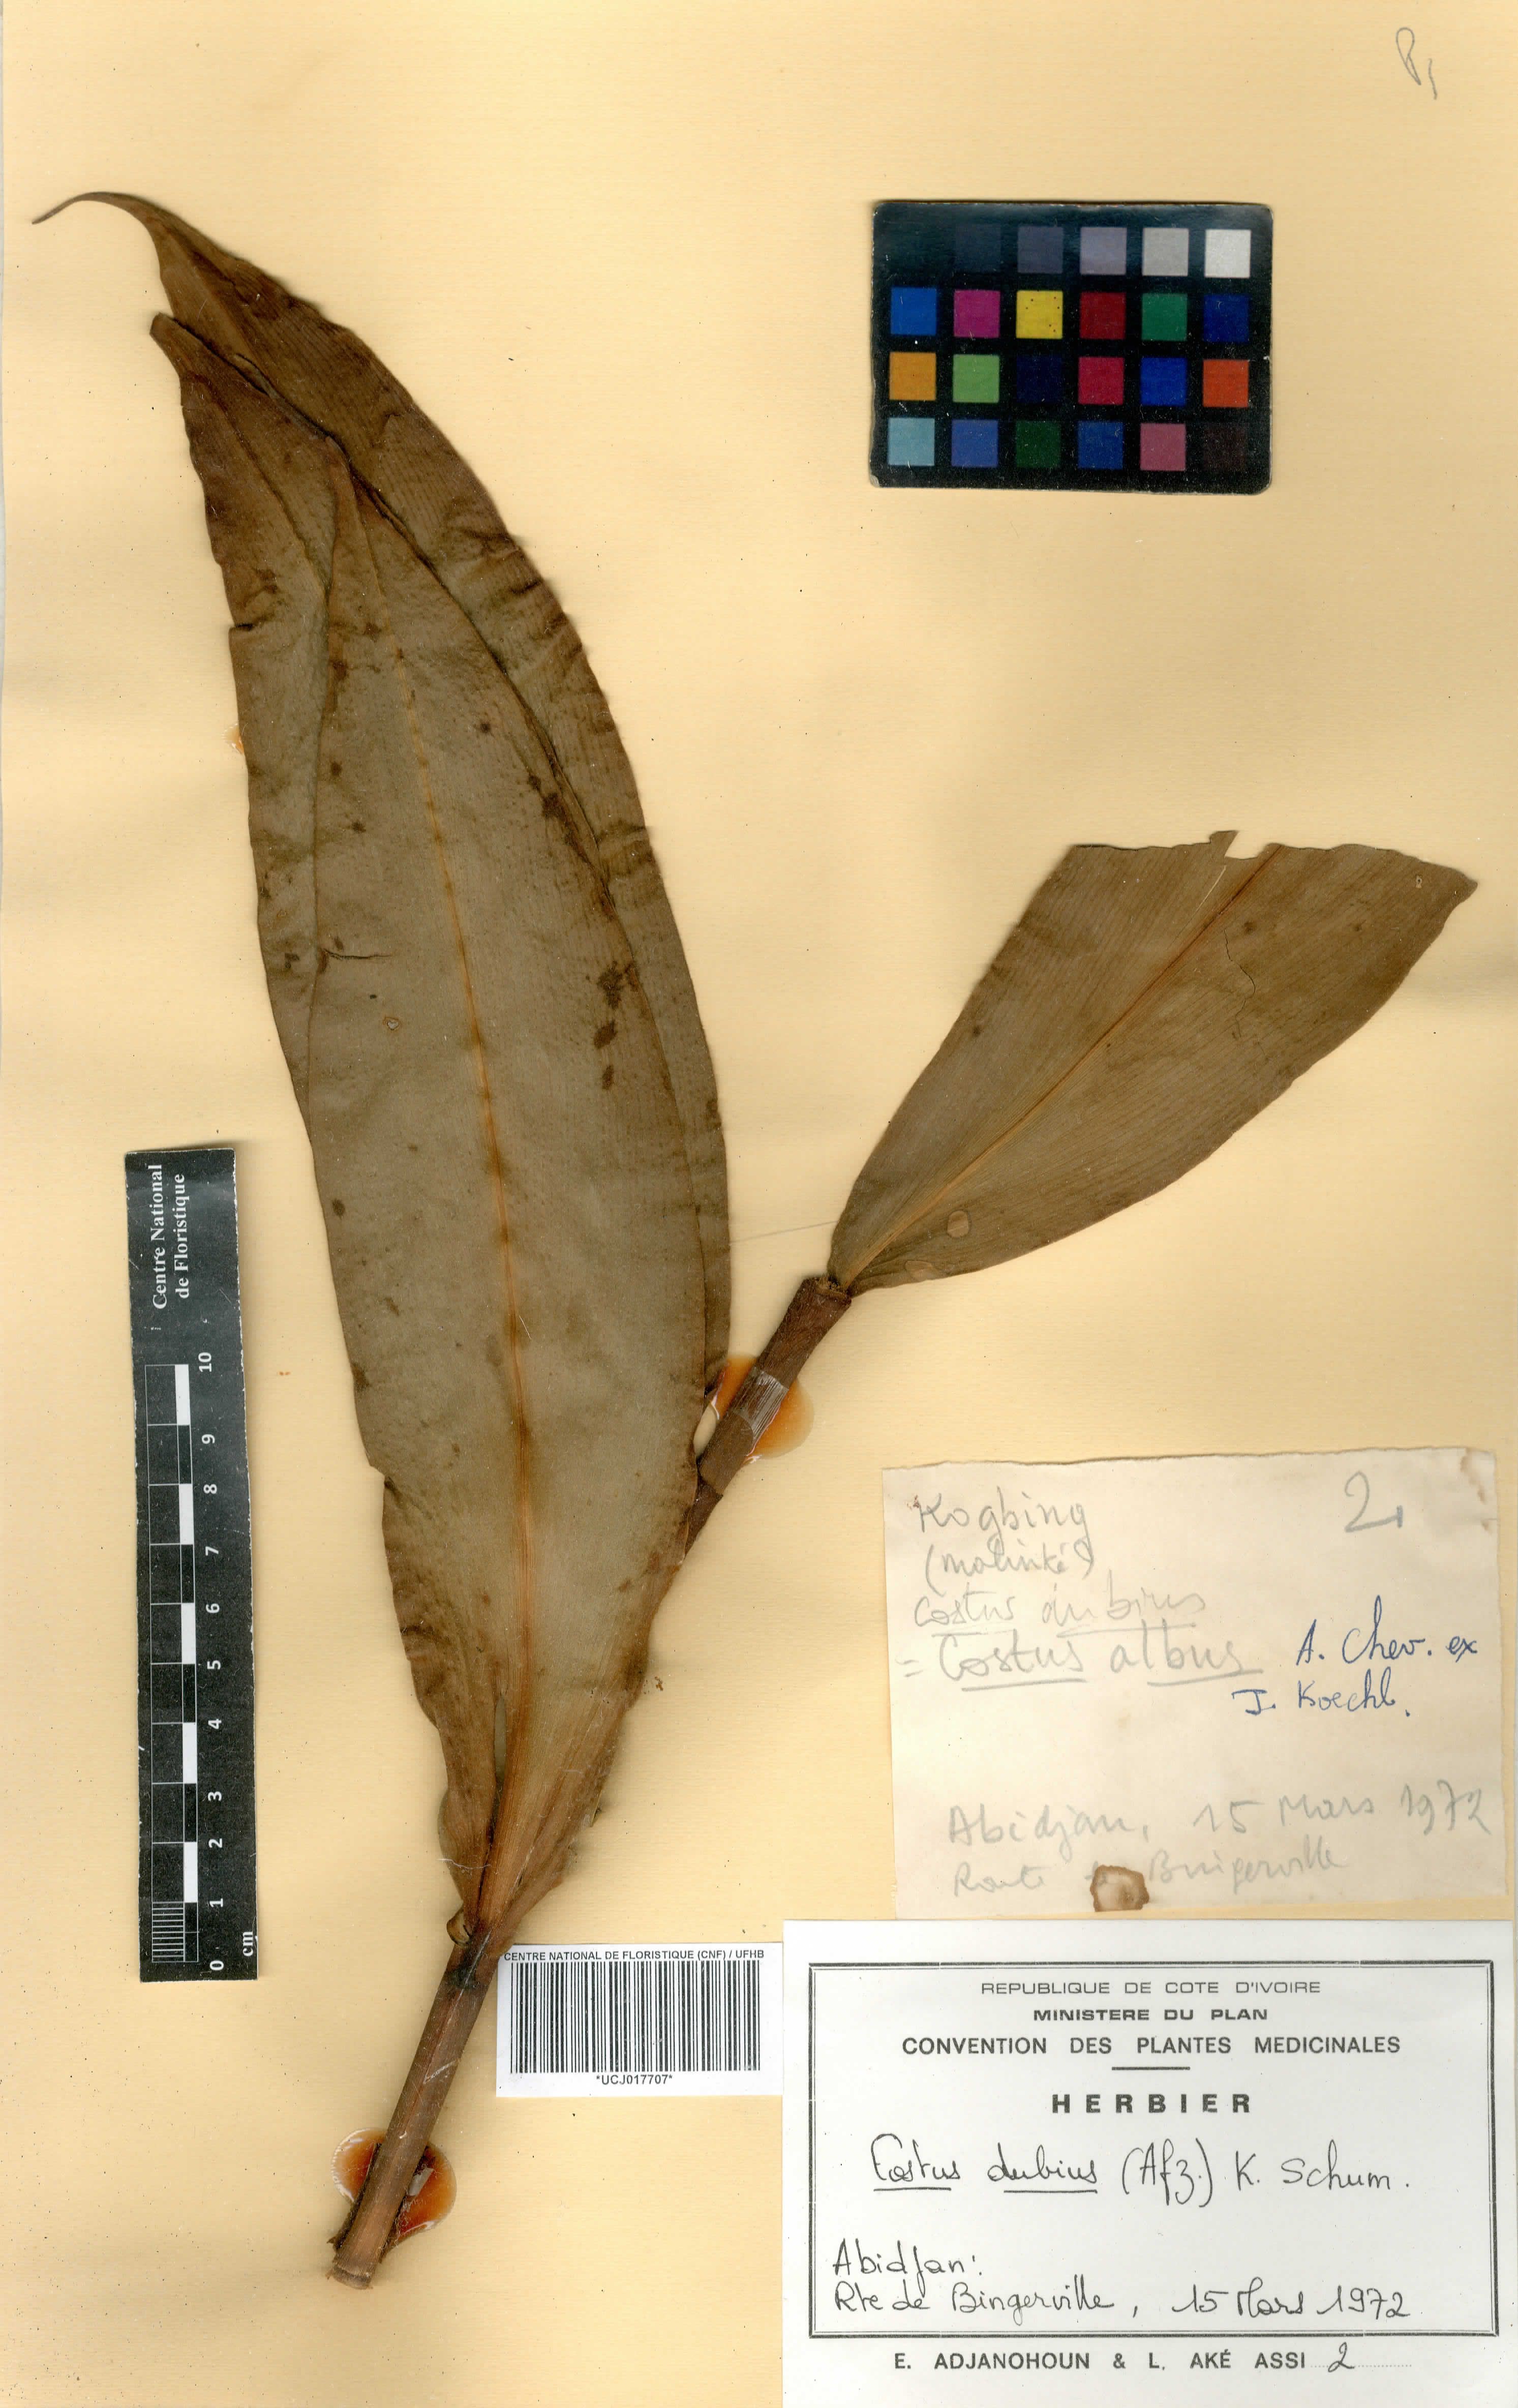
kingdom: Plantae
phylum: Tracheophyta
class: Liliopsida
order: Zingiberales
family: Costaceae
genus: Costus
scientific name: Costus dubius
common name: Costus
